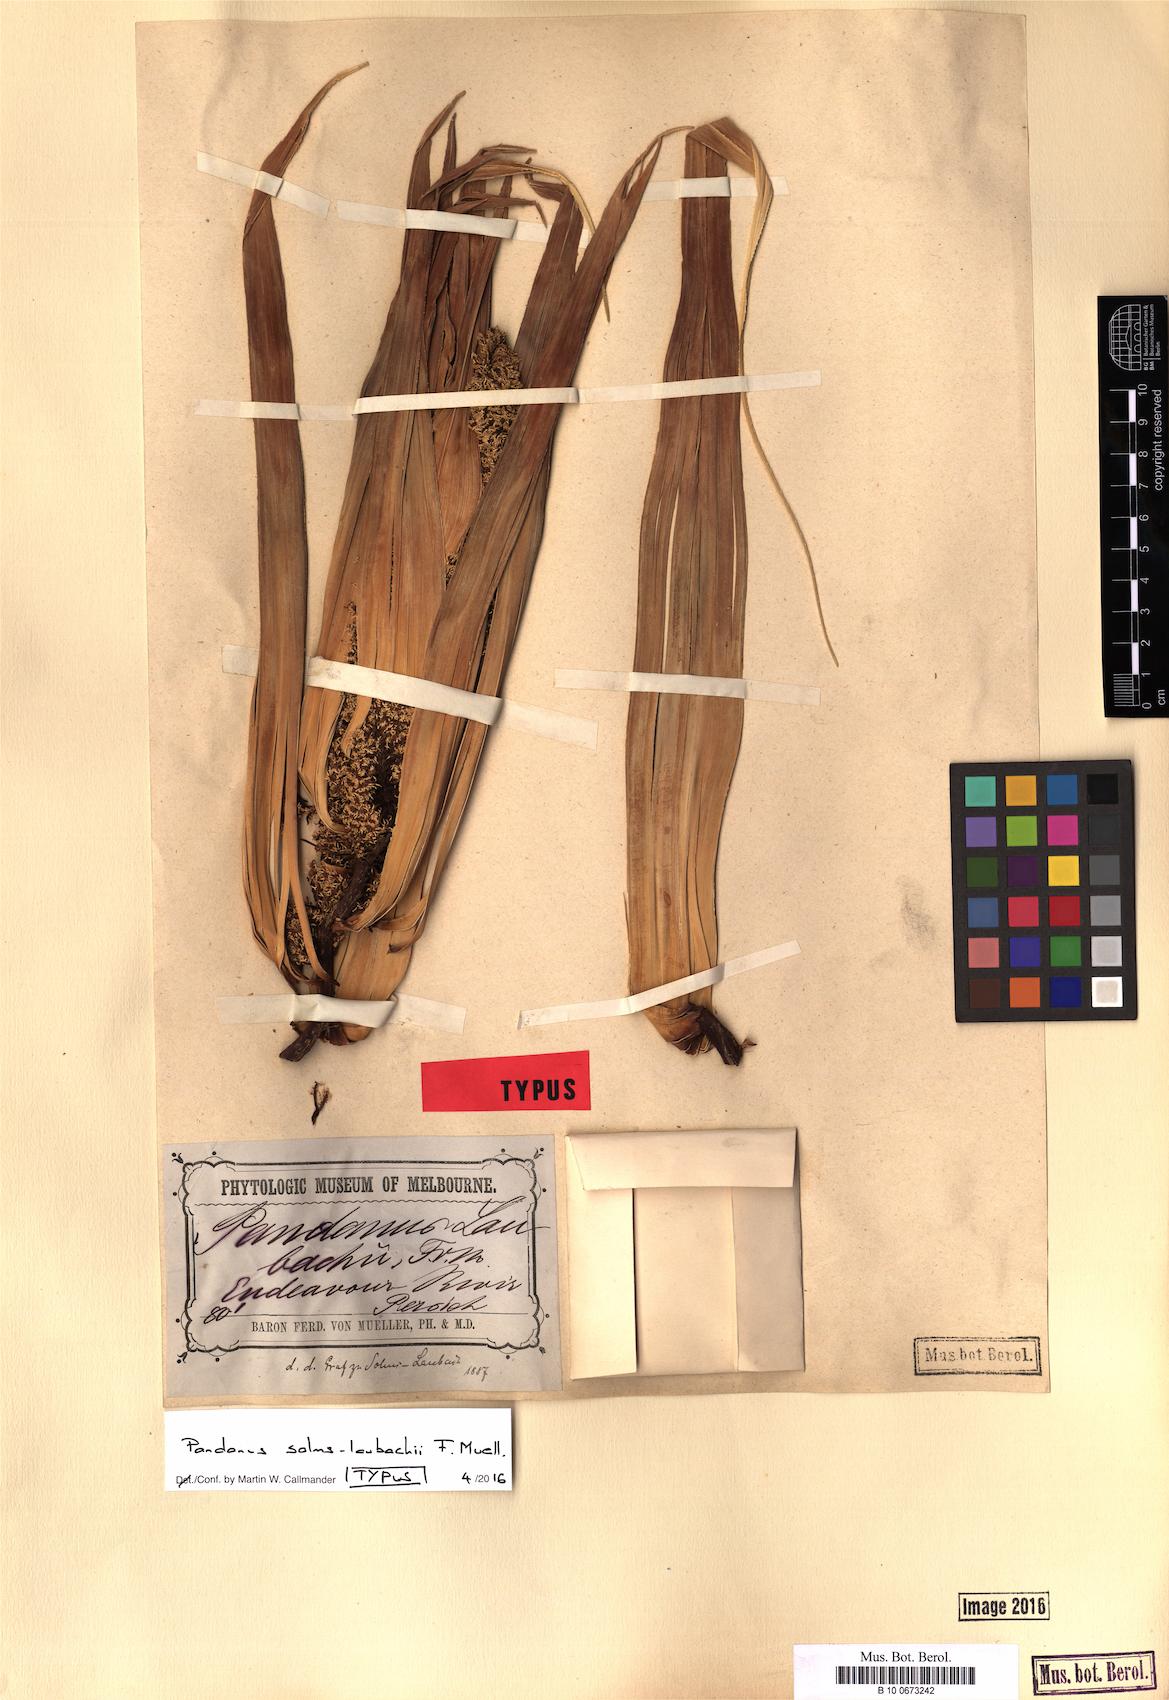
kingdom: Plantae
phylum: Tracheophyta
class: Liliopsida
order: Pandanales
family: Pandanaceae
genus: Pandanus
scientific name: Pandanus solms-laubachii
